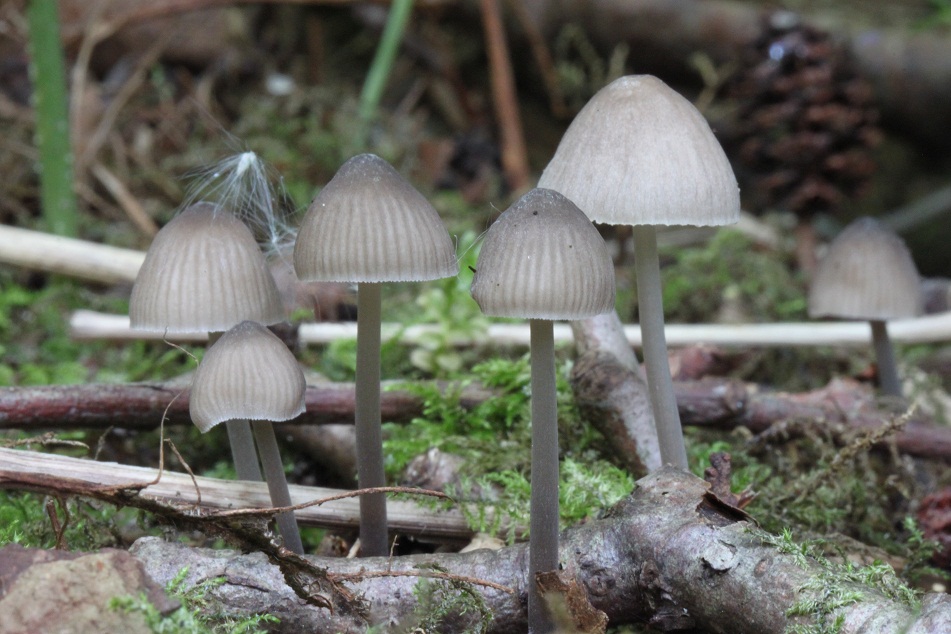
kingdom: Fungi
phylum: Basidiomycota
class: Agaricomycetes
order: Agaricales
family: Mycenaceae
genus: Mycena
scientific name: Mycena abramsii
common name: sommer-huesvamp
